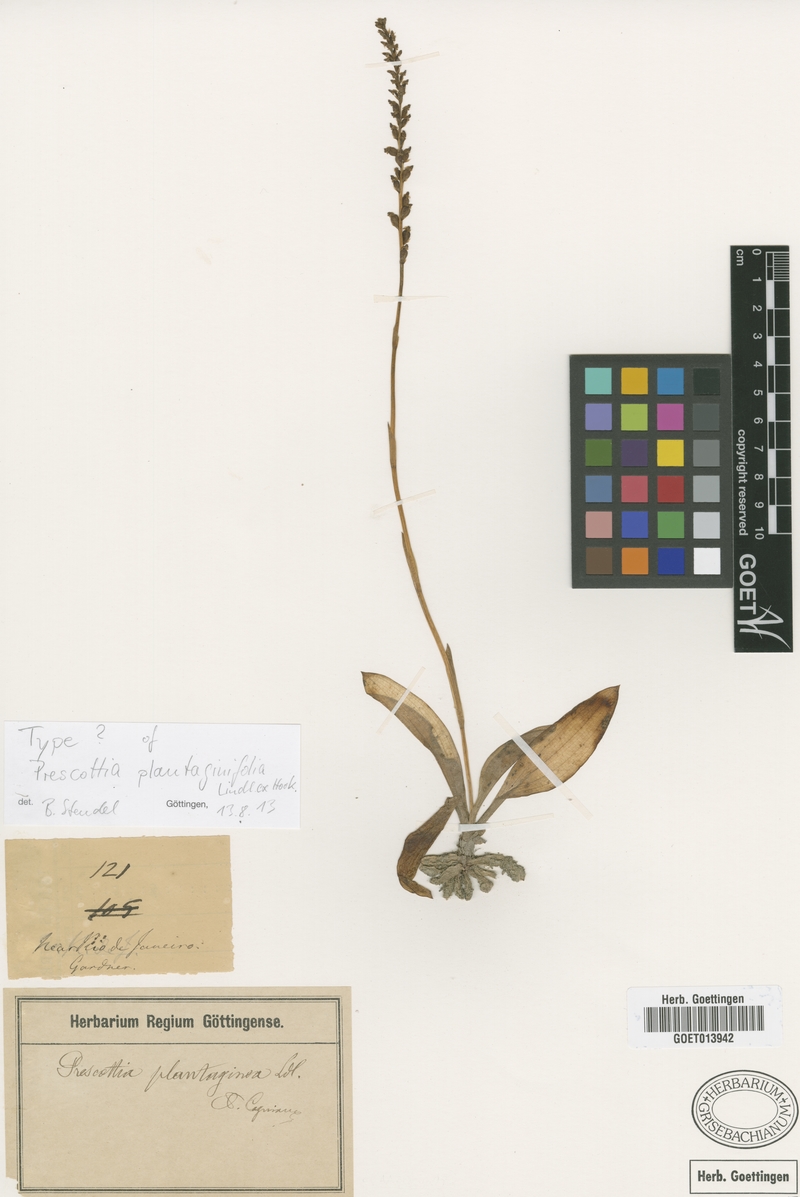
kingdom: Plantae
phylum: Tracheophyta
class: Liliopsida
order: Asparagales
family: Orchidaceae
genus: Prescottia
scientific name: Prescottia plantaginifolia
